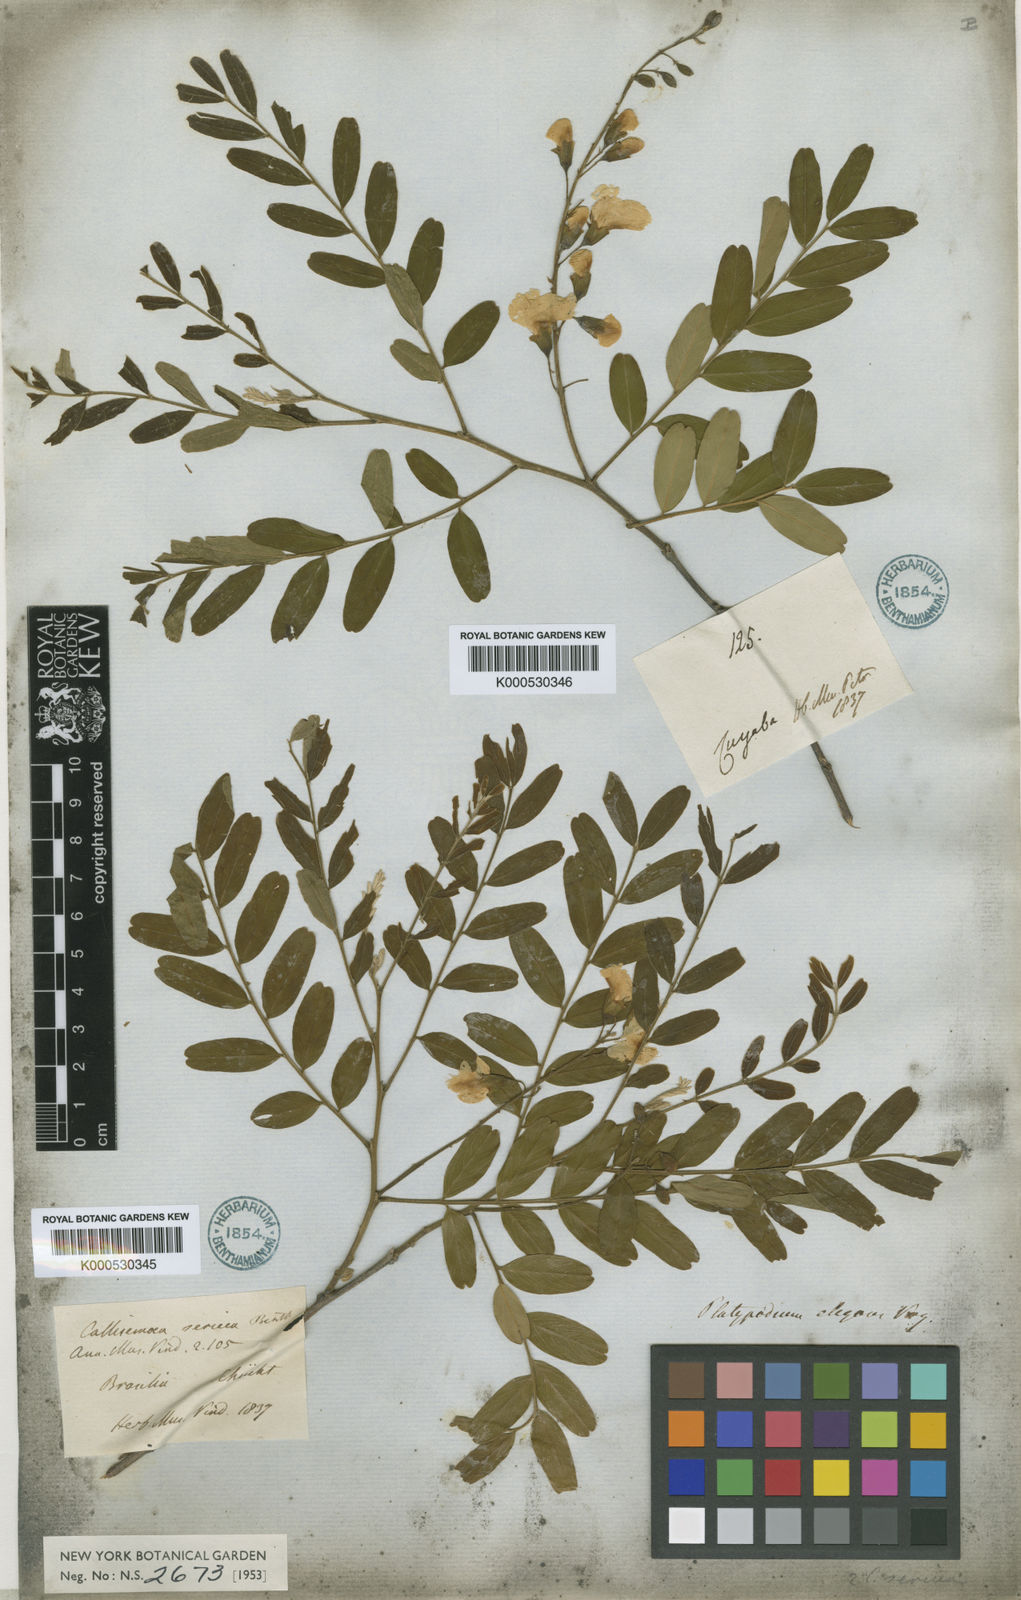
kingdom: Plantae
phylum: Tracheophyta
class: Magnoliopsida
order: Fabales
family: Fabaceae
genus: Platypodium
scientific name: Platypodium elegans
